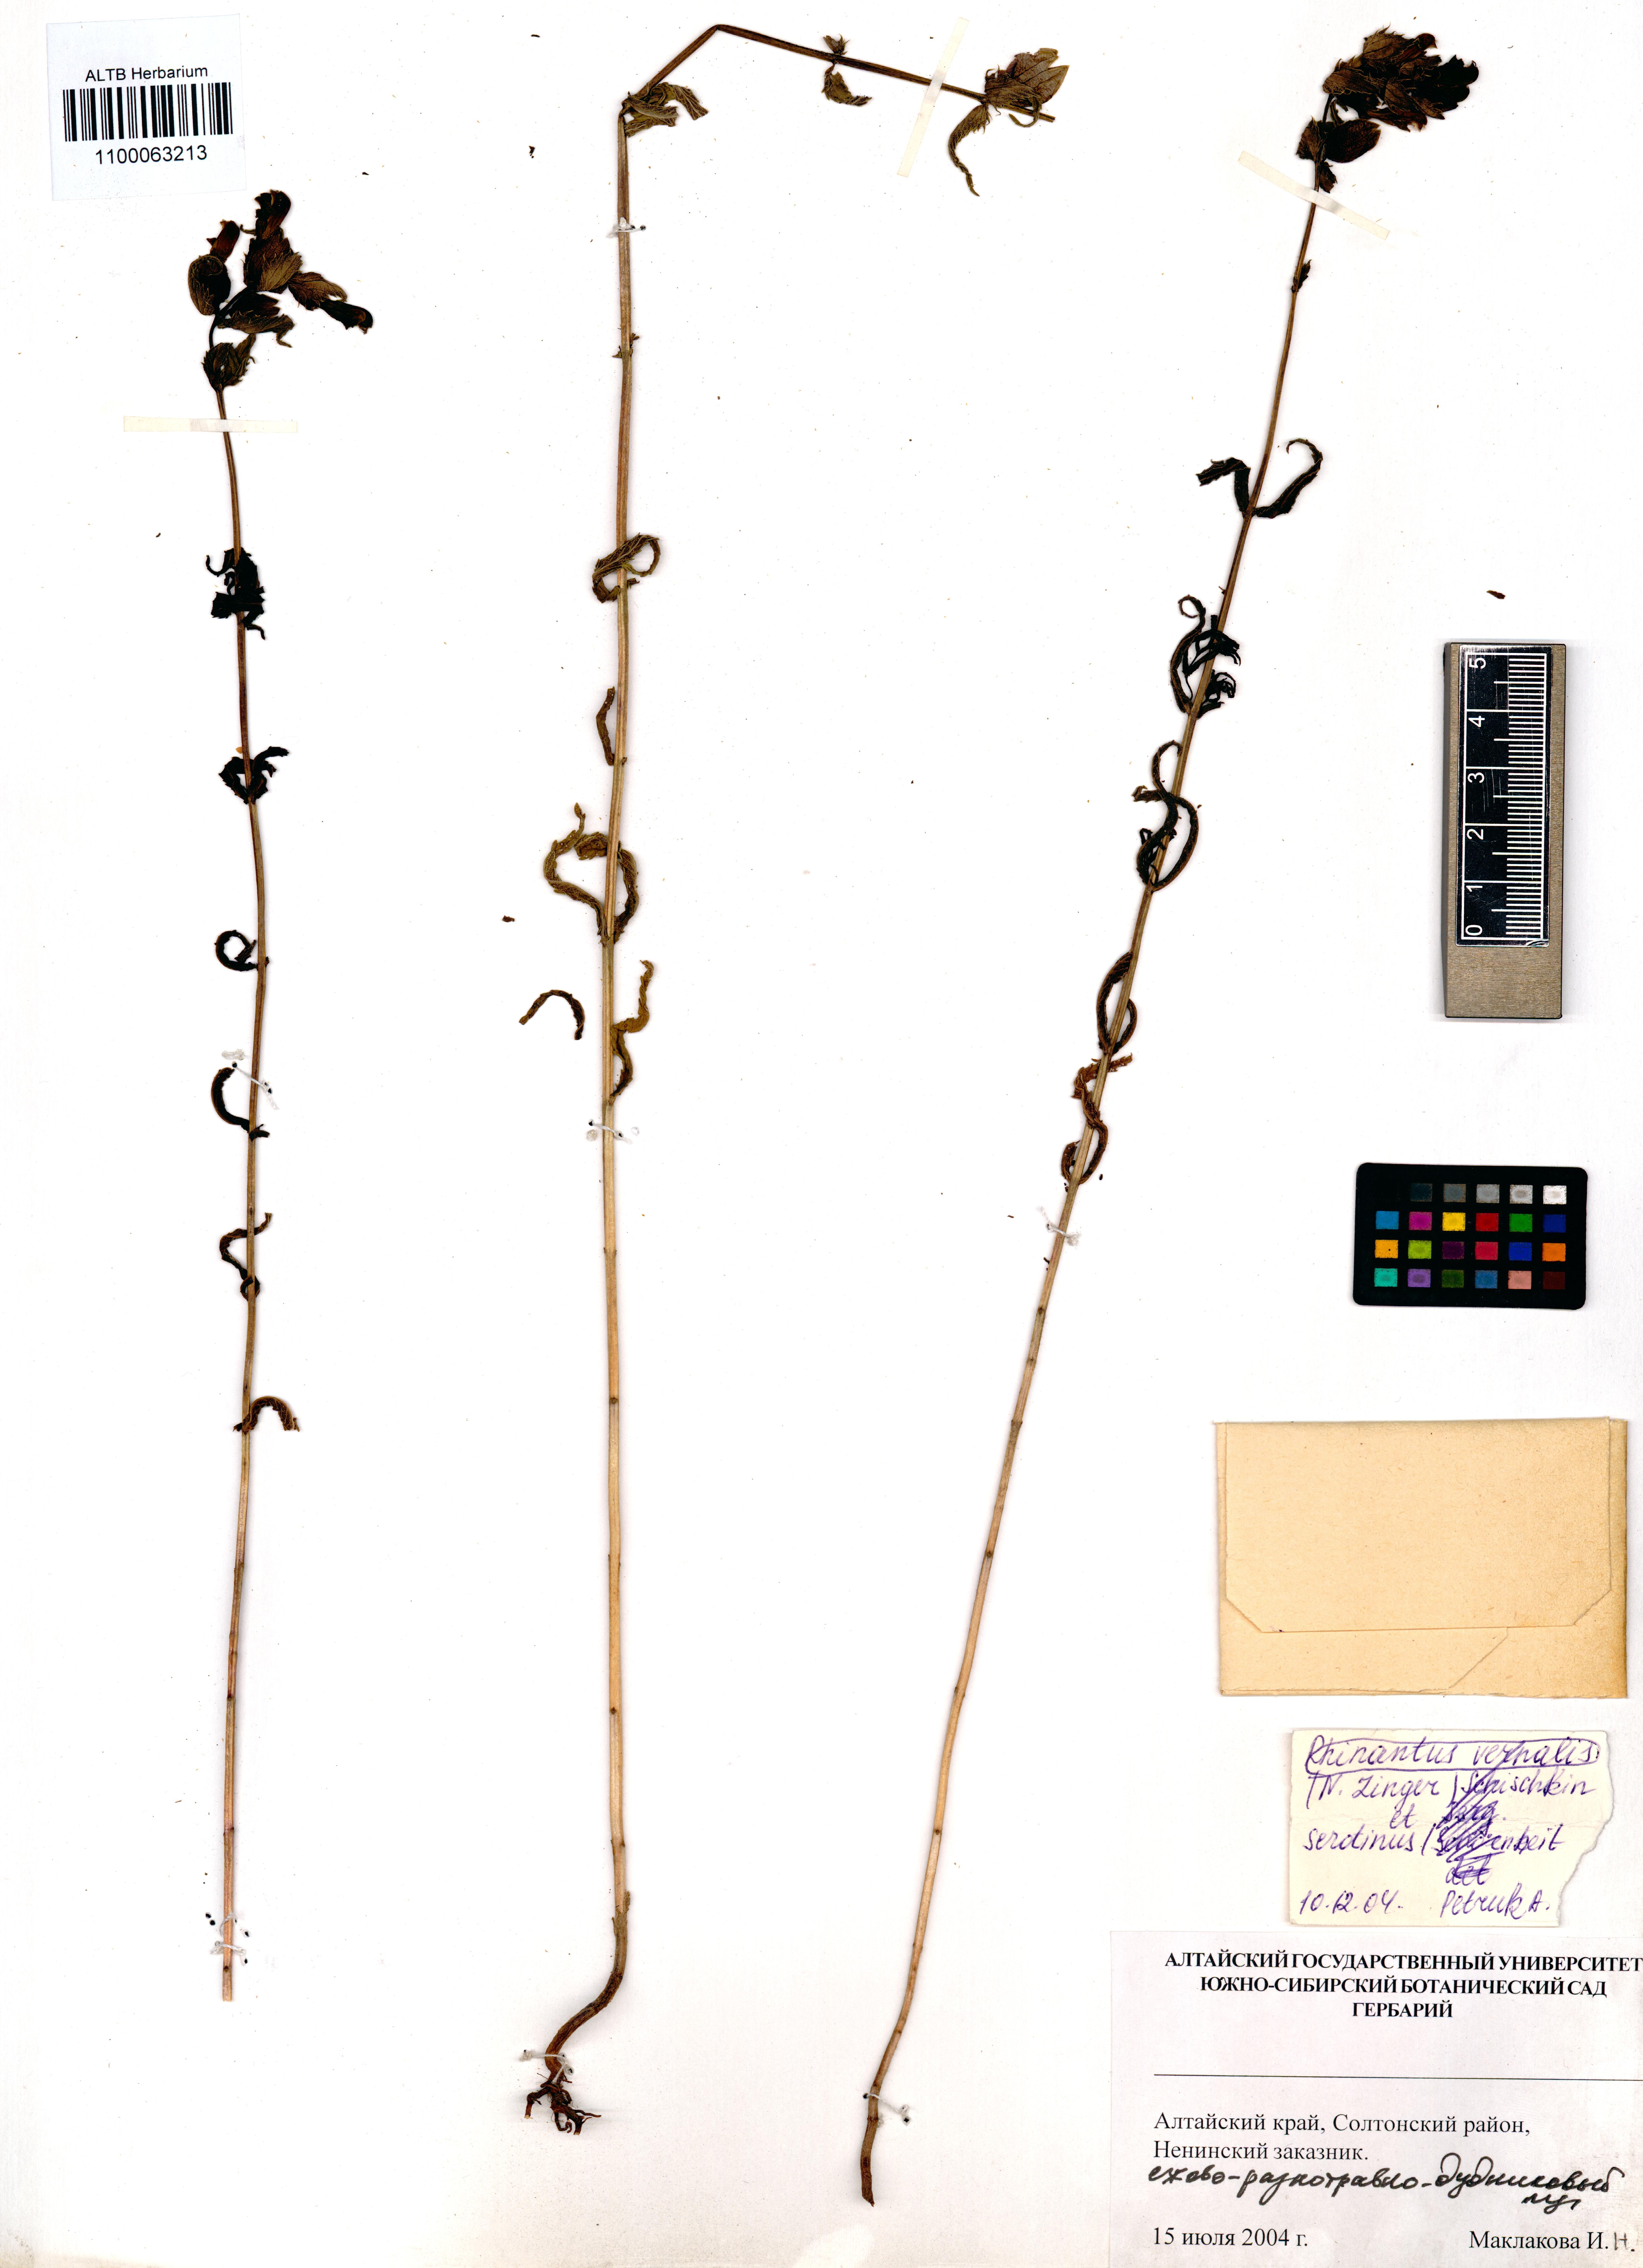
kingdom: Plantae
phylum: Tracheophyta
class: Magnoliopsida
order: Lamiales
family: Orobanchaceae
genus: Rhinanthus
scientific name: Rhinanthus serotinus
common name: Late-flowering yellow rattle
